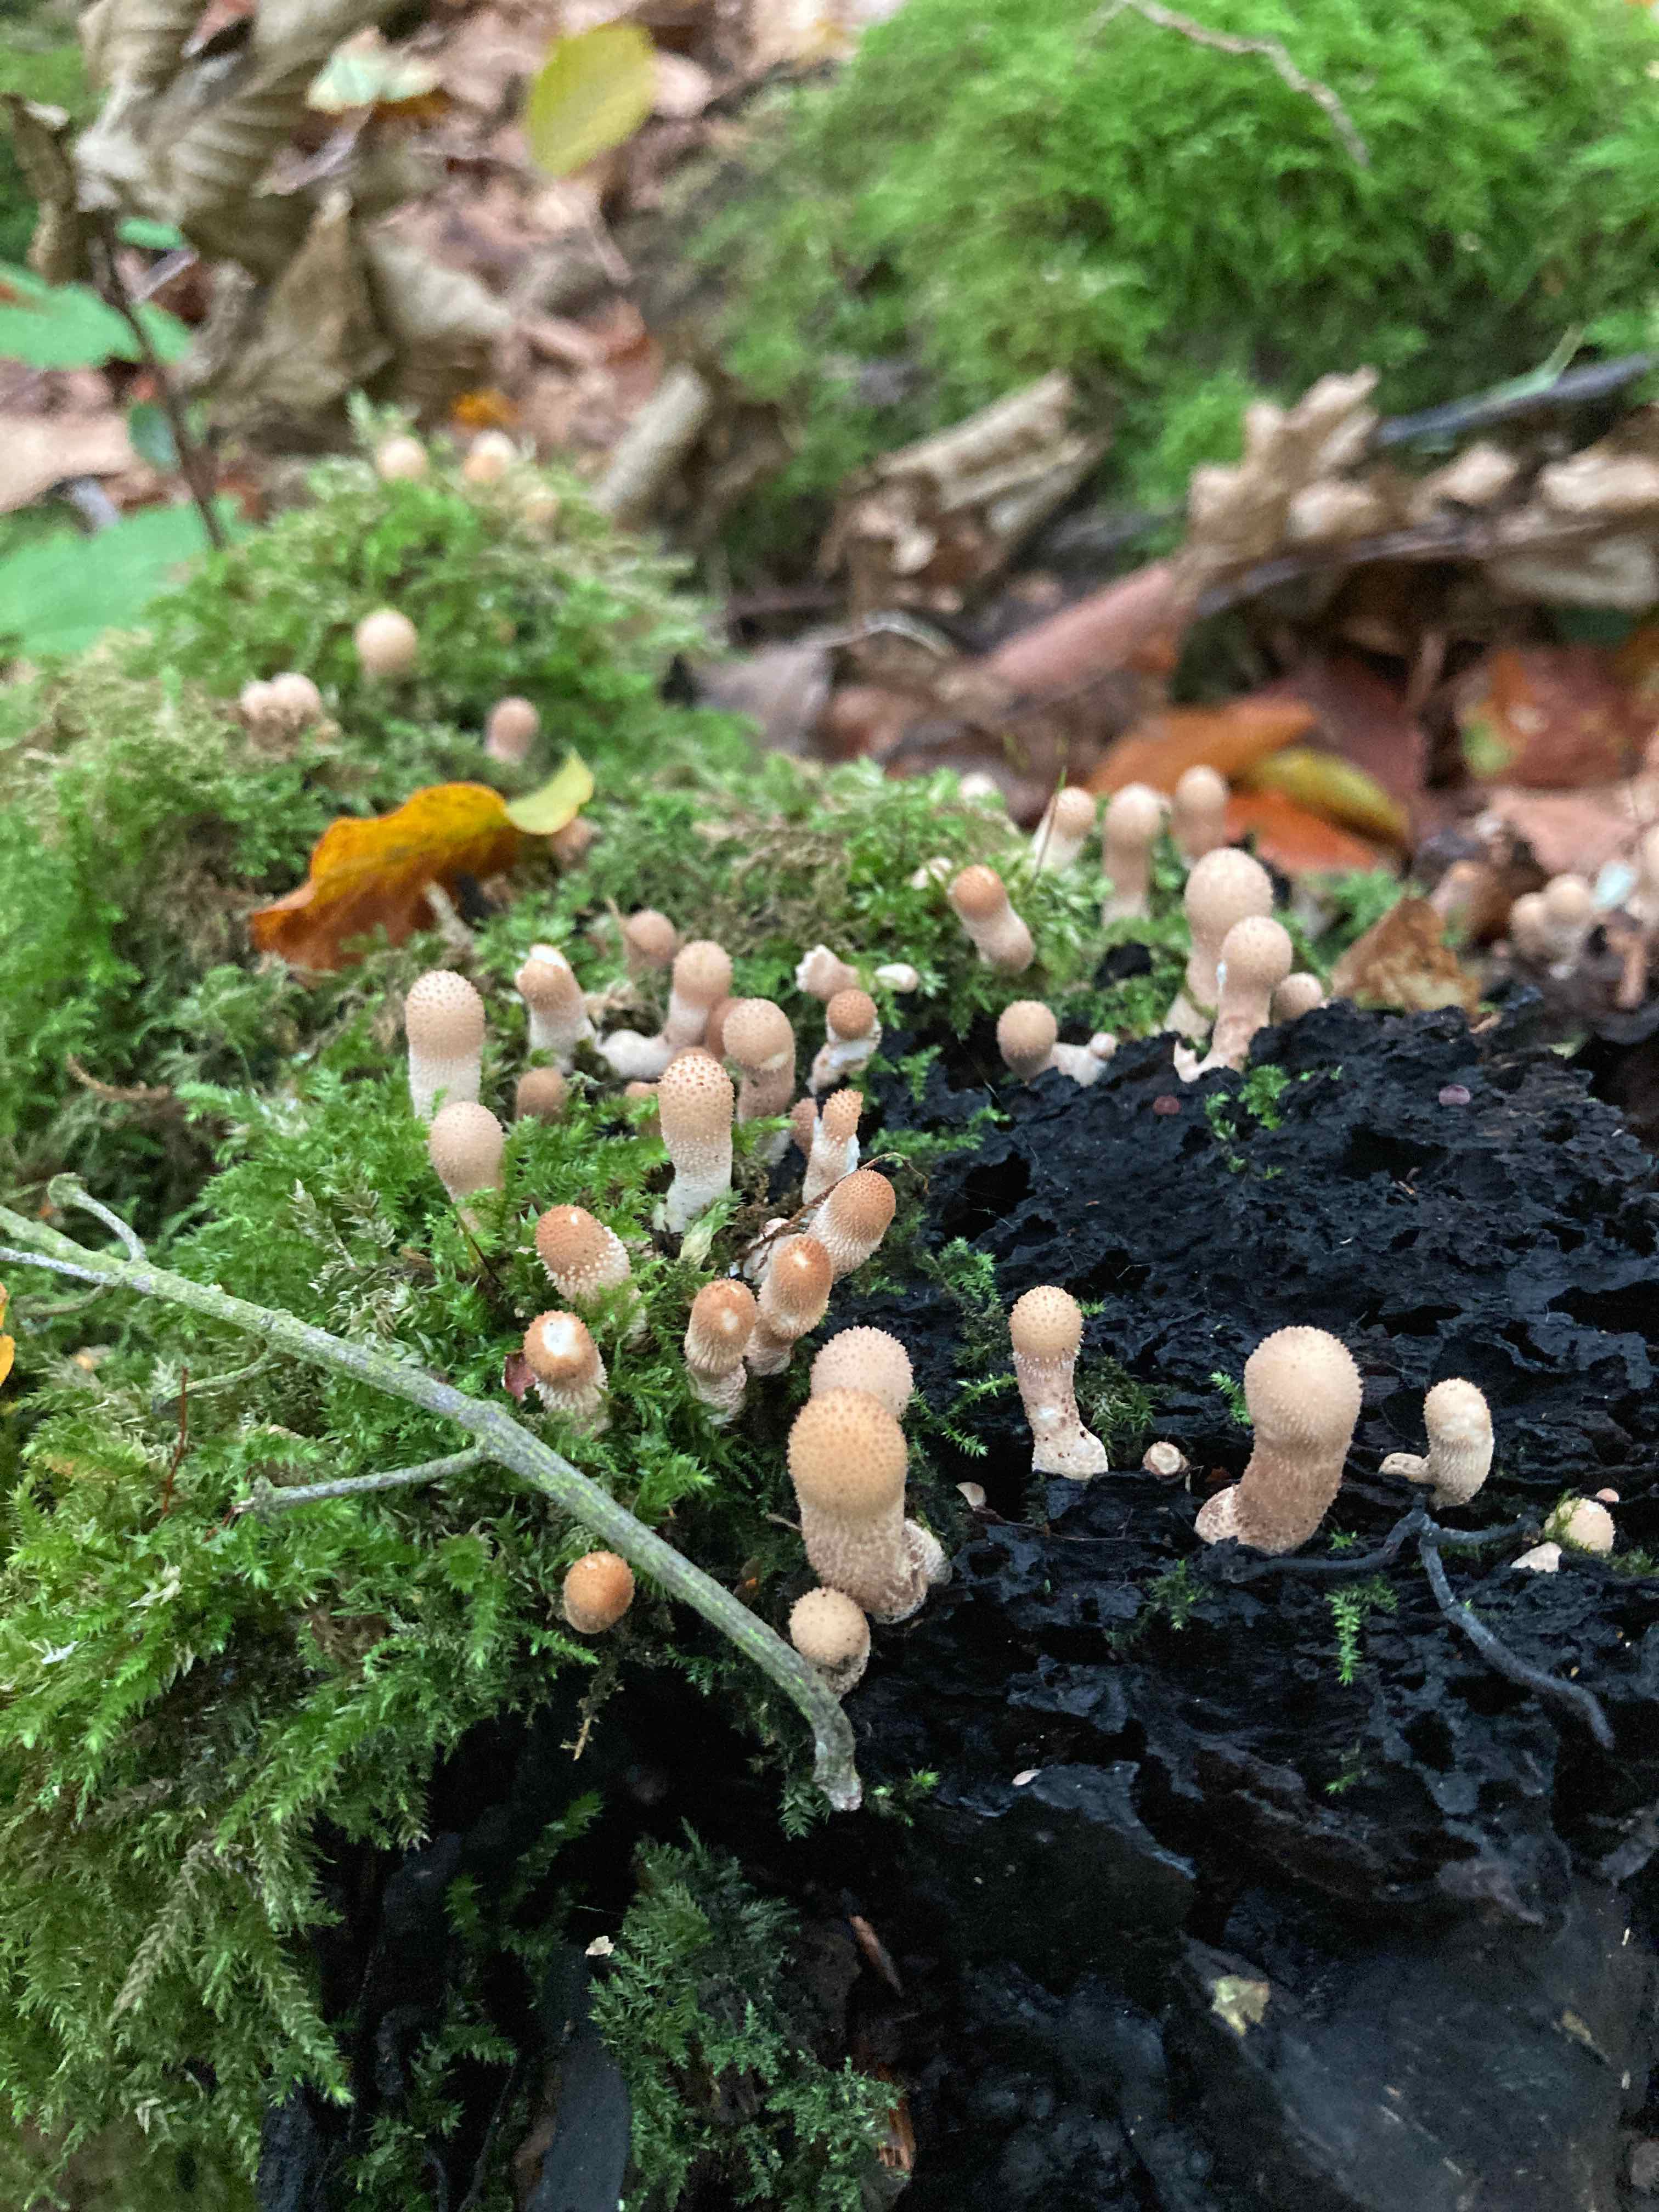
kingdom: Fungi
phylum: Basidiomycota
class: Agaricomycetes
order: Agaricales
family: Lycoperdaceae
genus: Apioperdon
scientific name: Apioperdon pyriforme
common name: pære-støvbold
